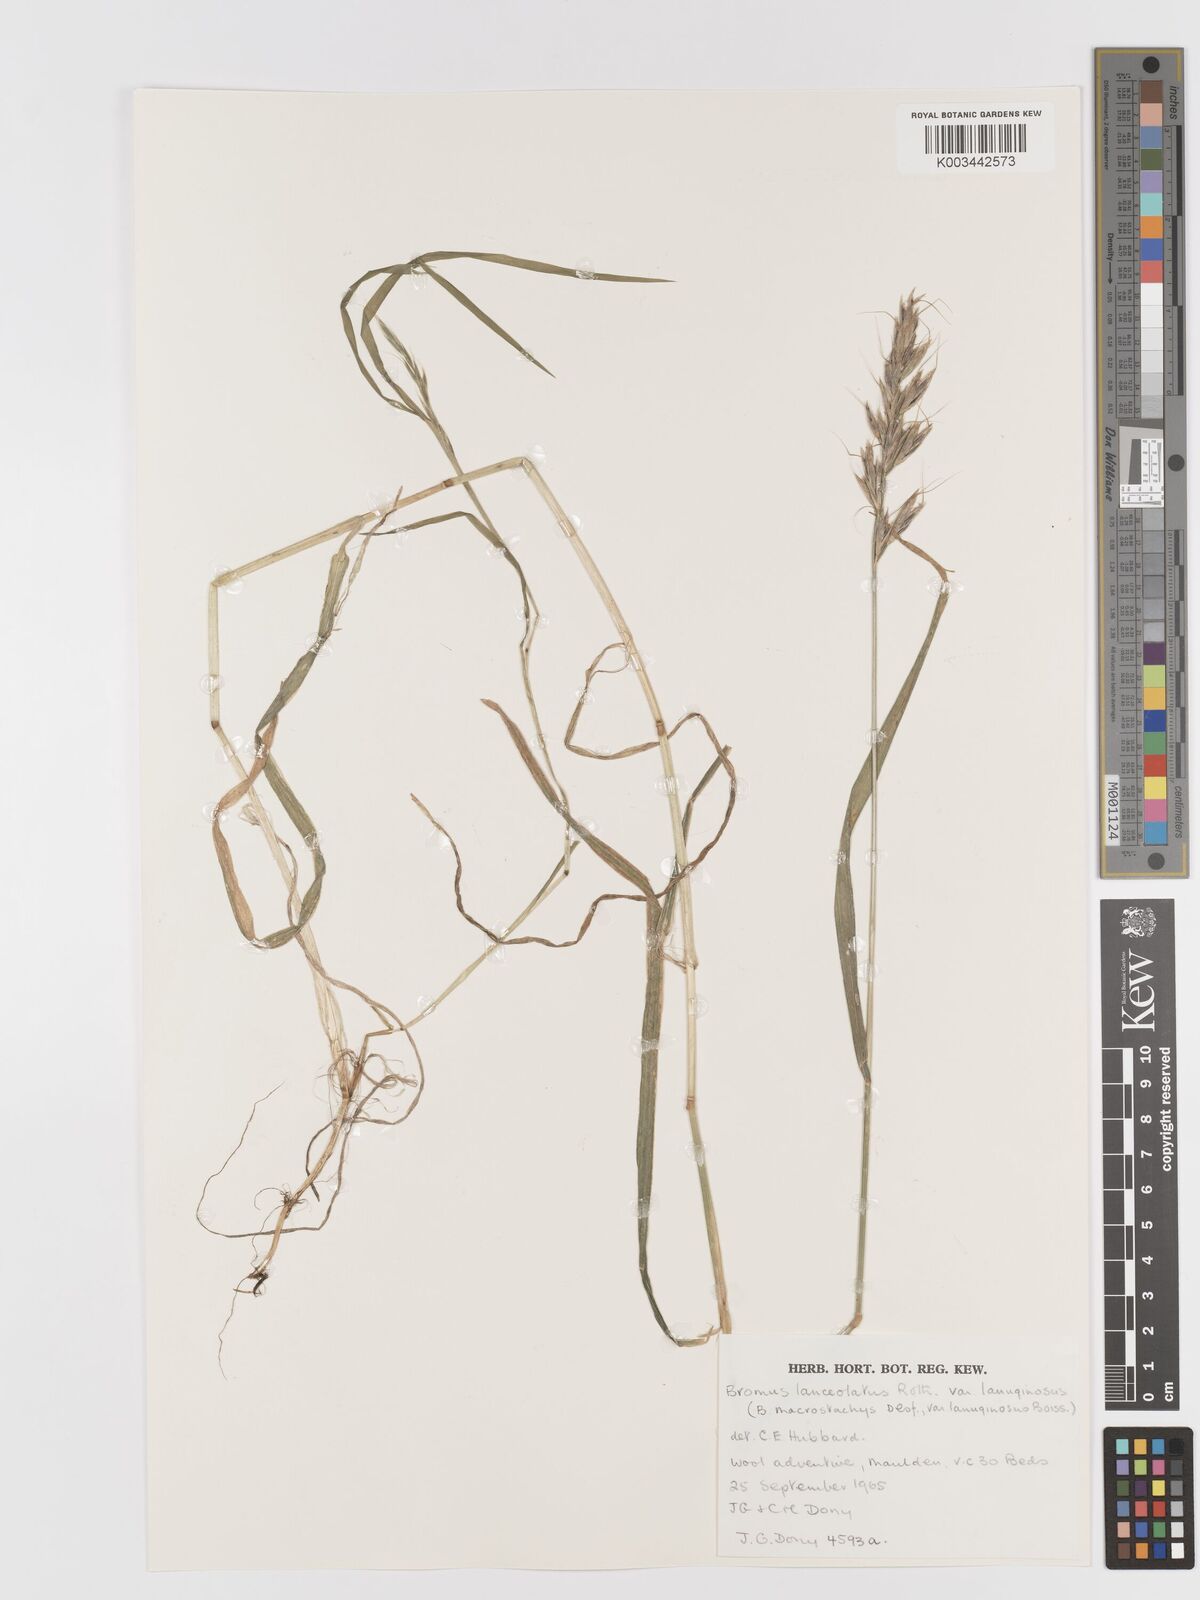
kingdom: Plantae
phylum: Tracheophyta
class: Liliopsida
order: Poales
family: Poaceae
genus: Bromus
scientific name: Bromus lanceolatus
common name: Mediterranean brome
